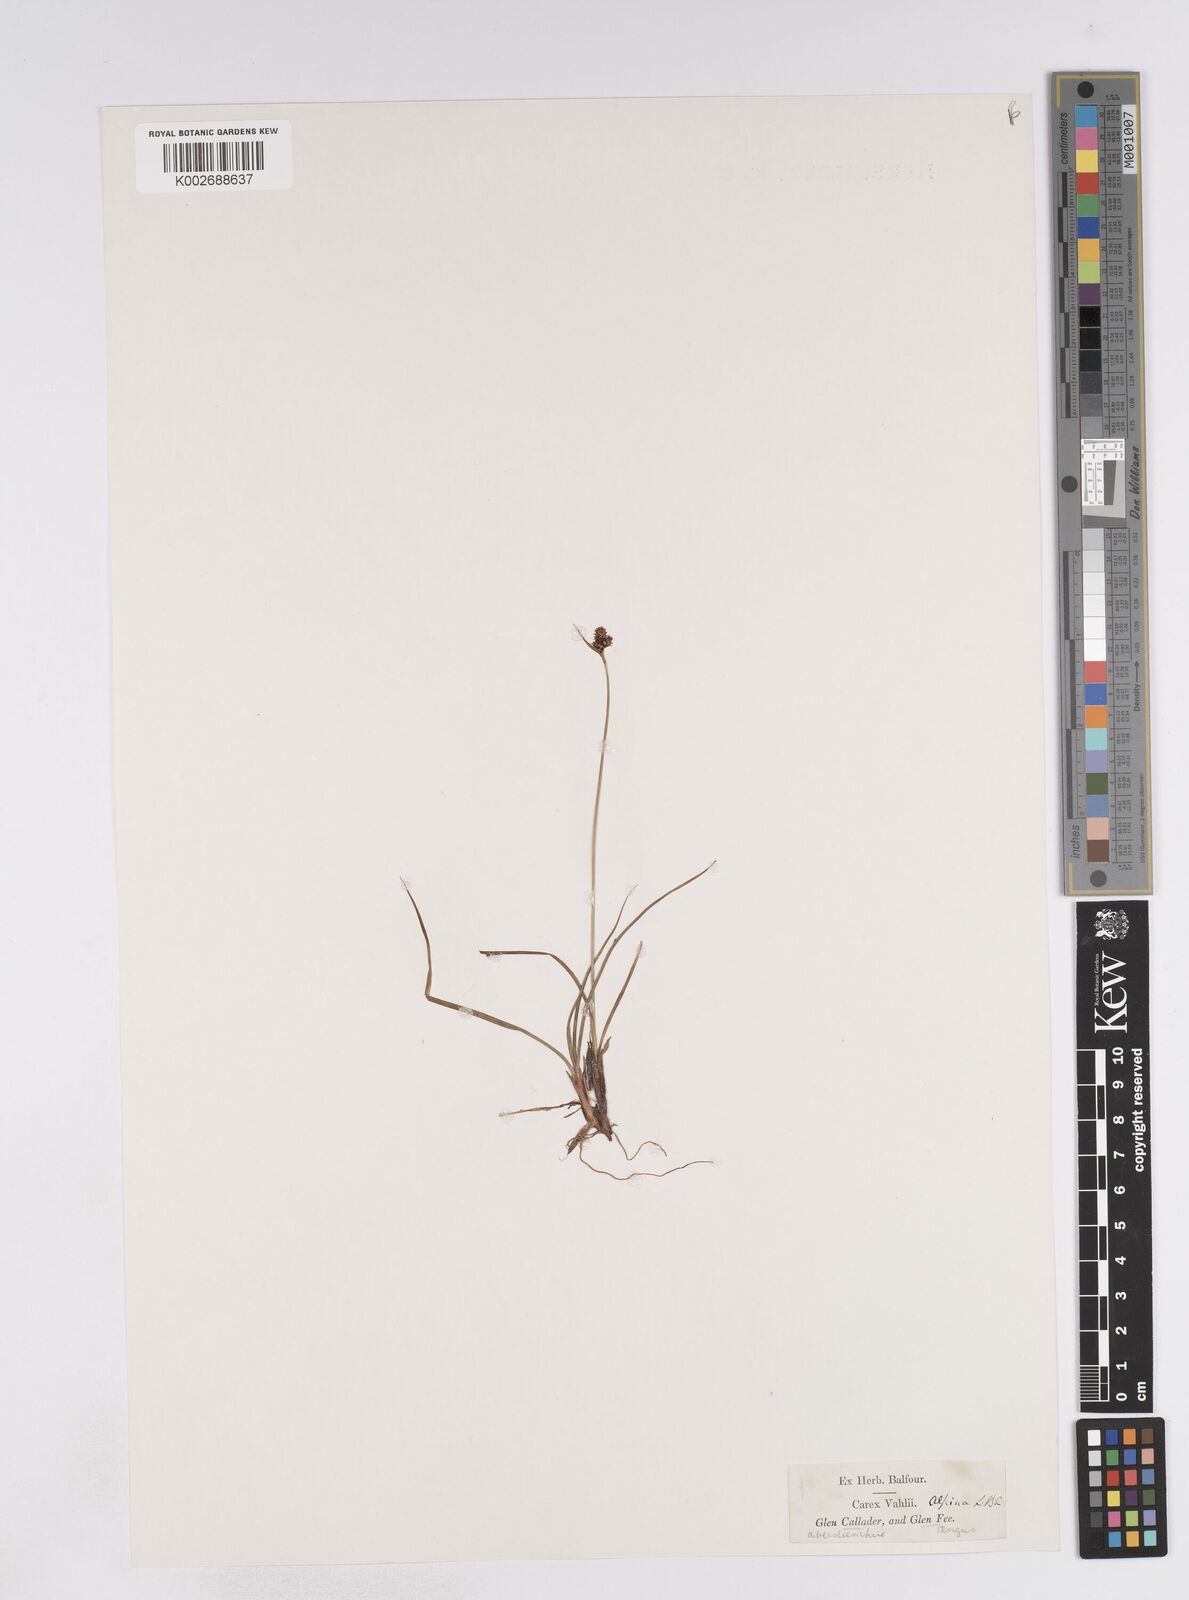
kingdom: Plantae
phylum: Tracheophyta
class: Liliopsida
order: Poales
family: Cyperaceae
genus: Carex
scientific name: Carex norvegica
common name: Close-headed alpine-sedge
